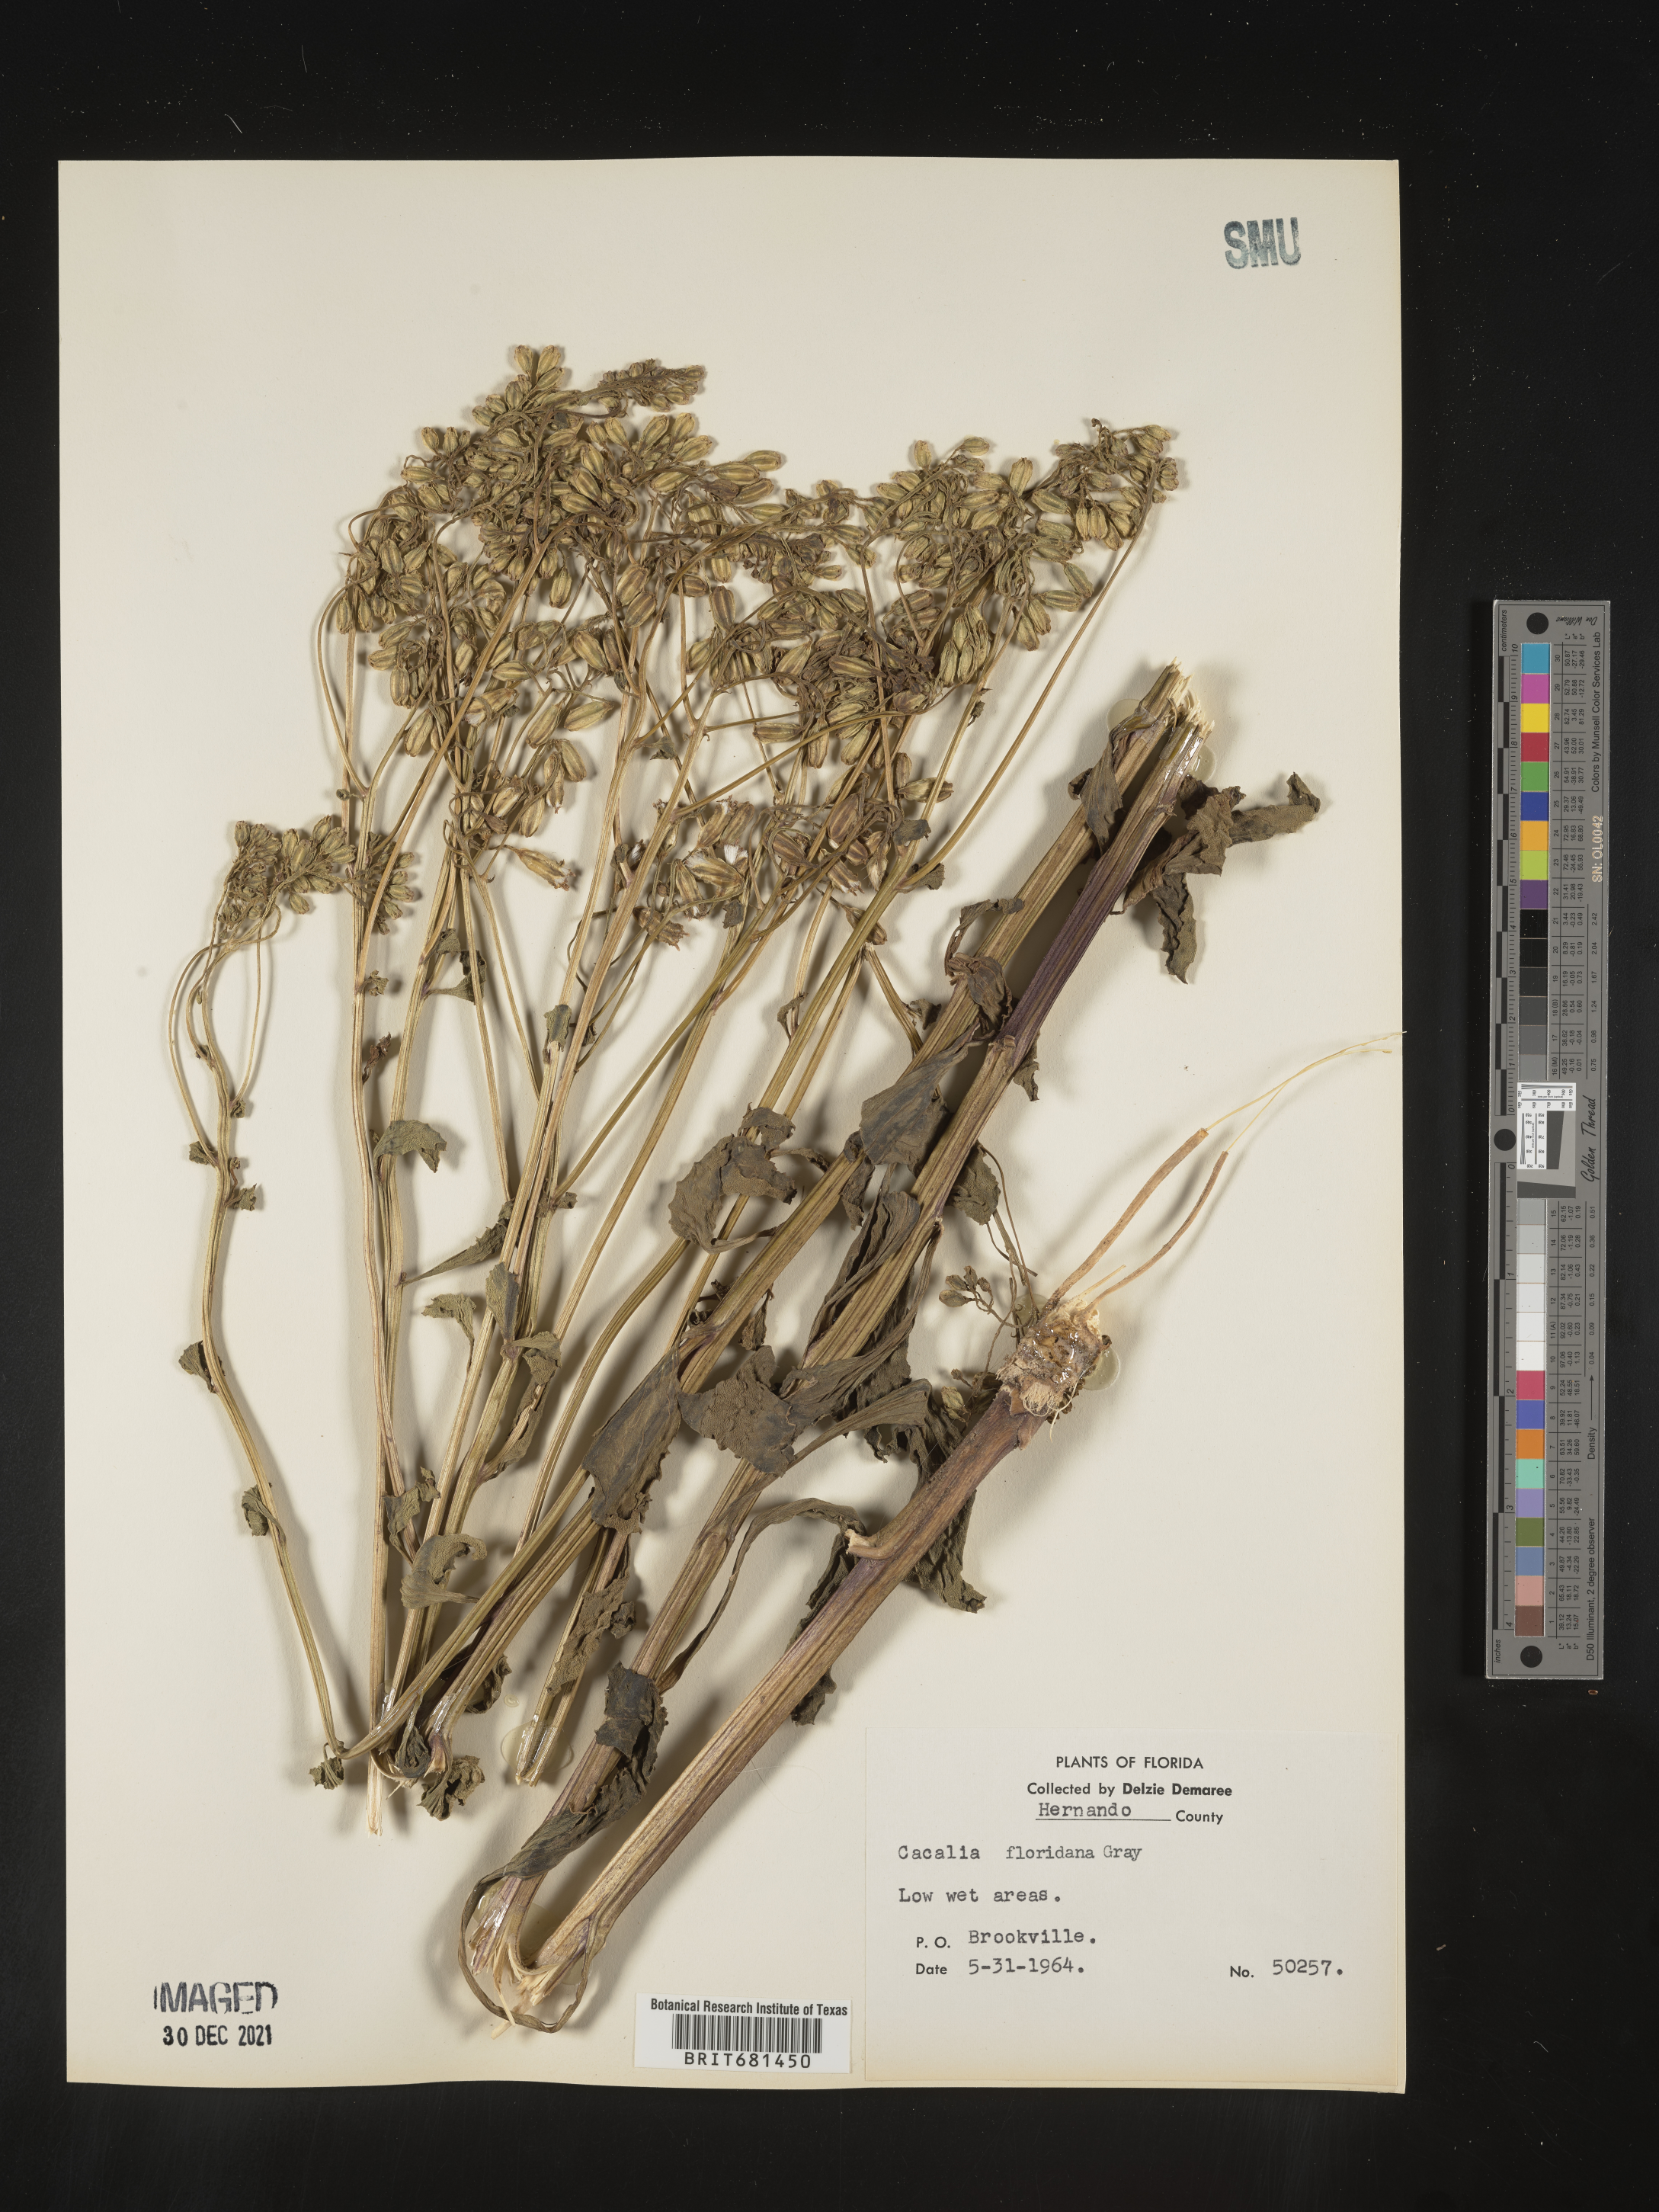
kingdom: Plantae
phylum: Tracheophyta
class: Magnoliopsida
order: Asterales
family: Asteraceae
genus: Arnoglossum
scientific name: Arnoglossum floridanum
